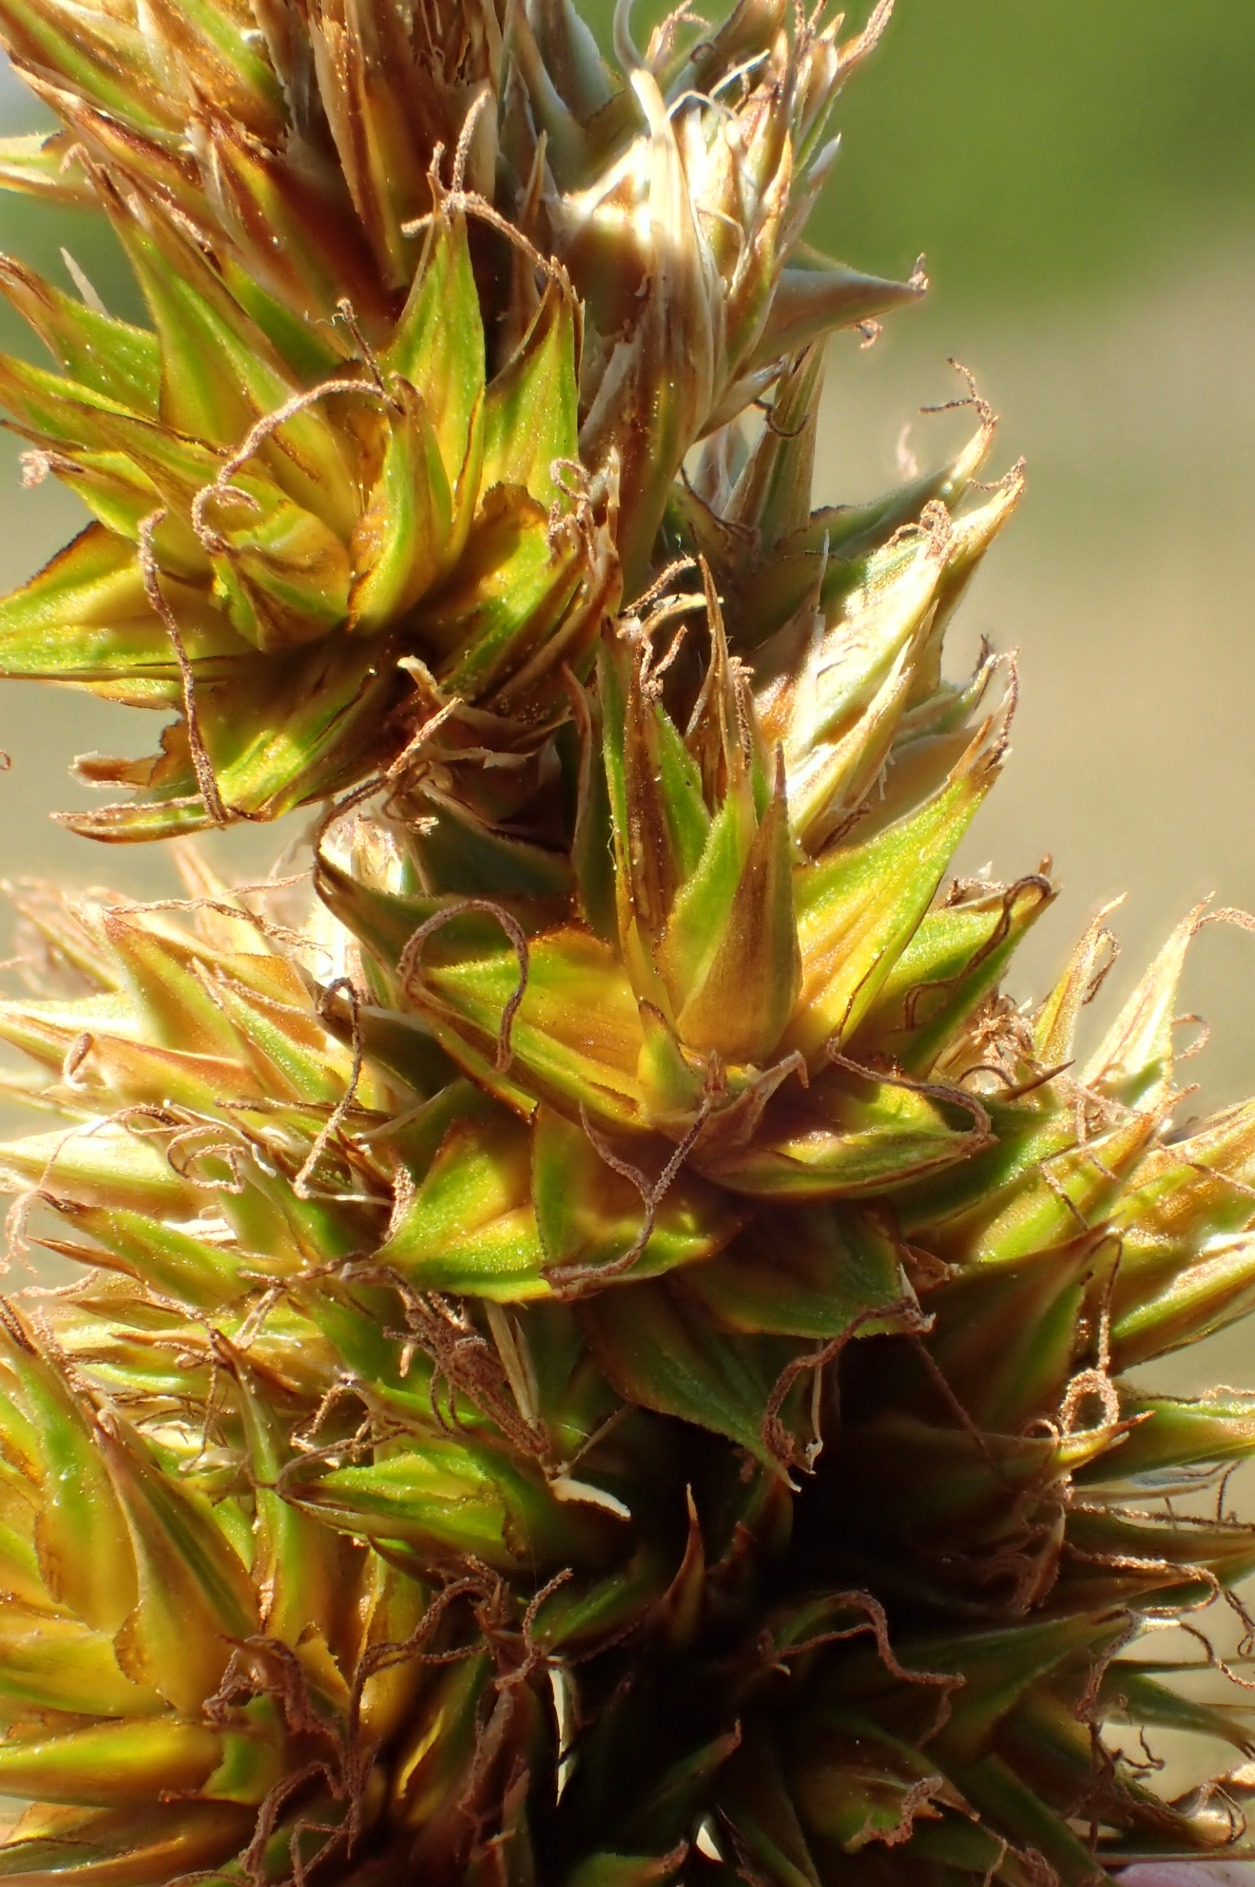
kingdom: Plantae
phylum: Tracheophyta
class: Liliopsida
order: Poales
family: Cyperaceae
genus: Carex
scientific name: Carex arenaria
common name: Sand-star
